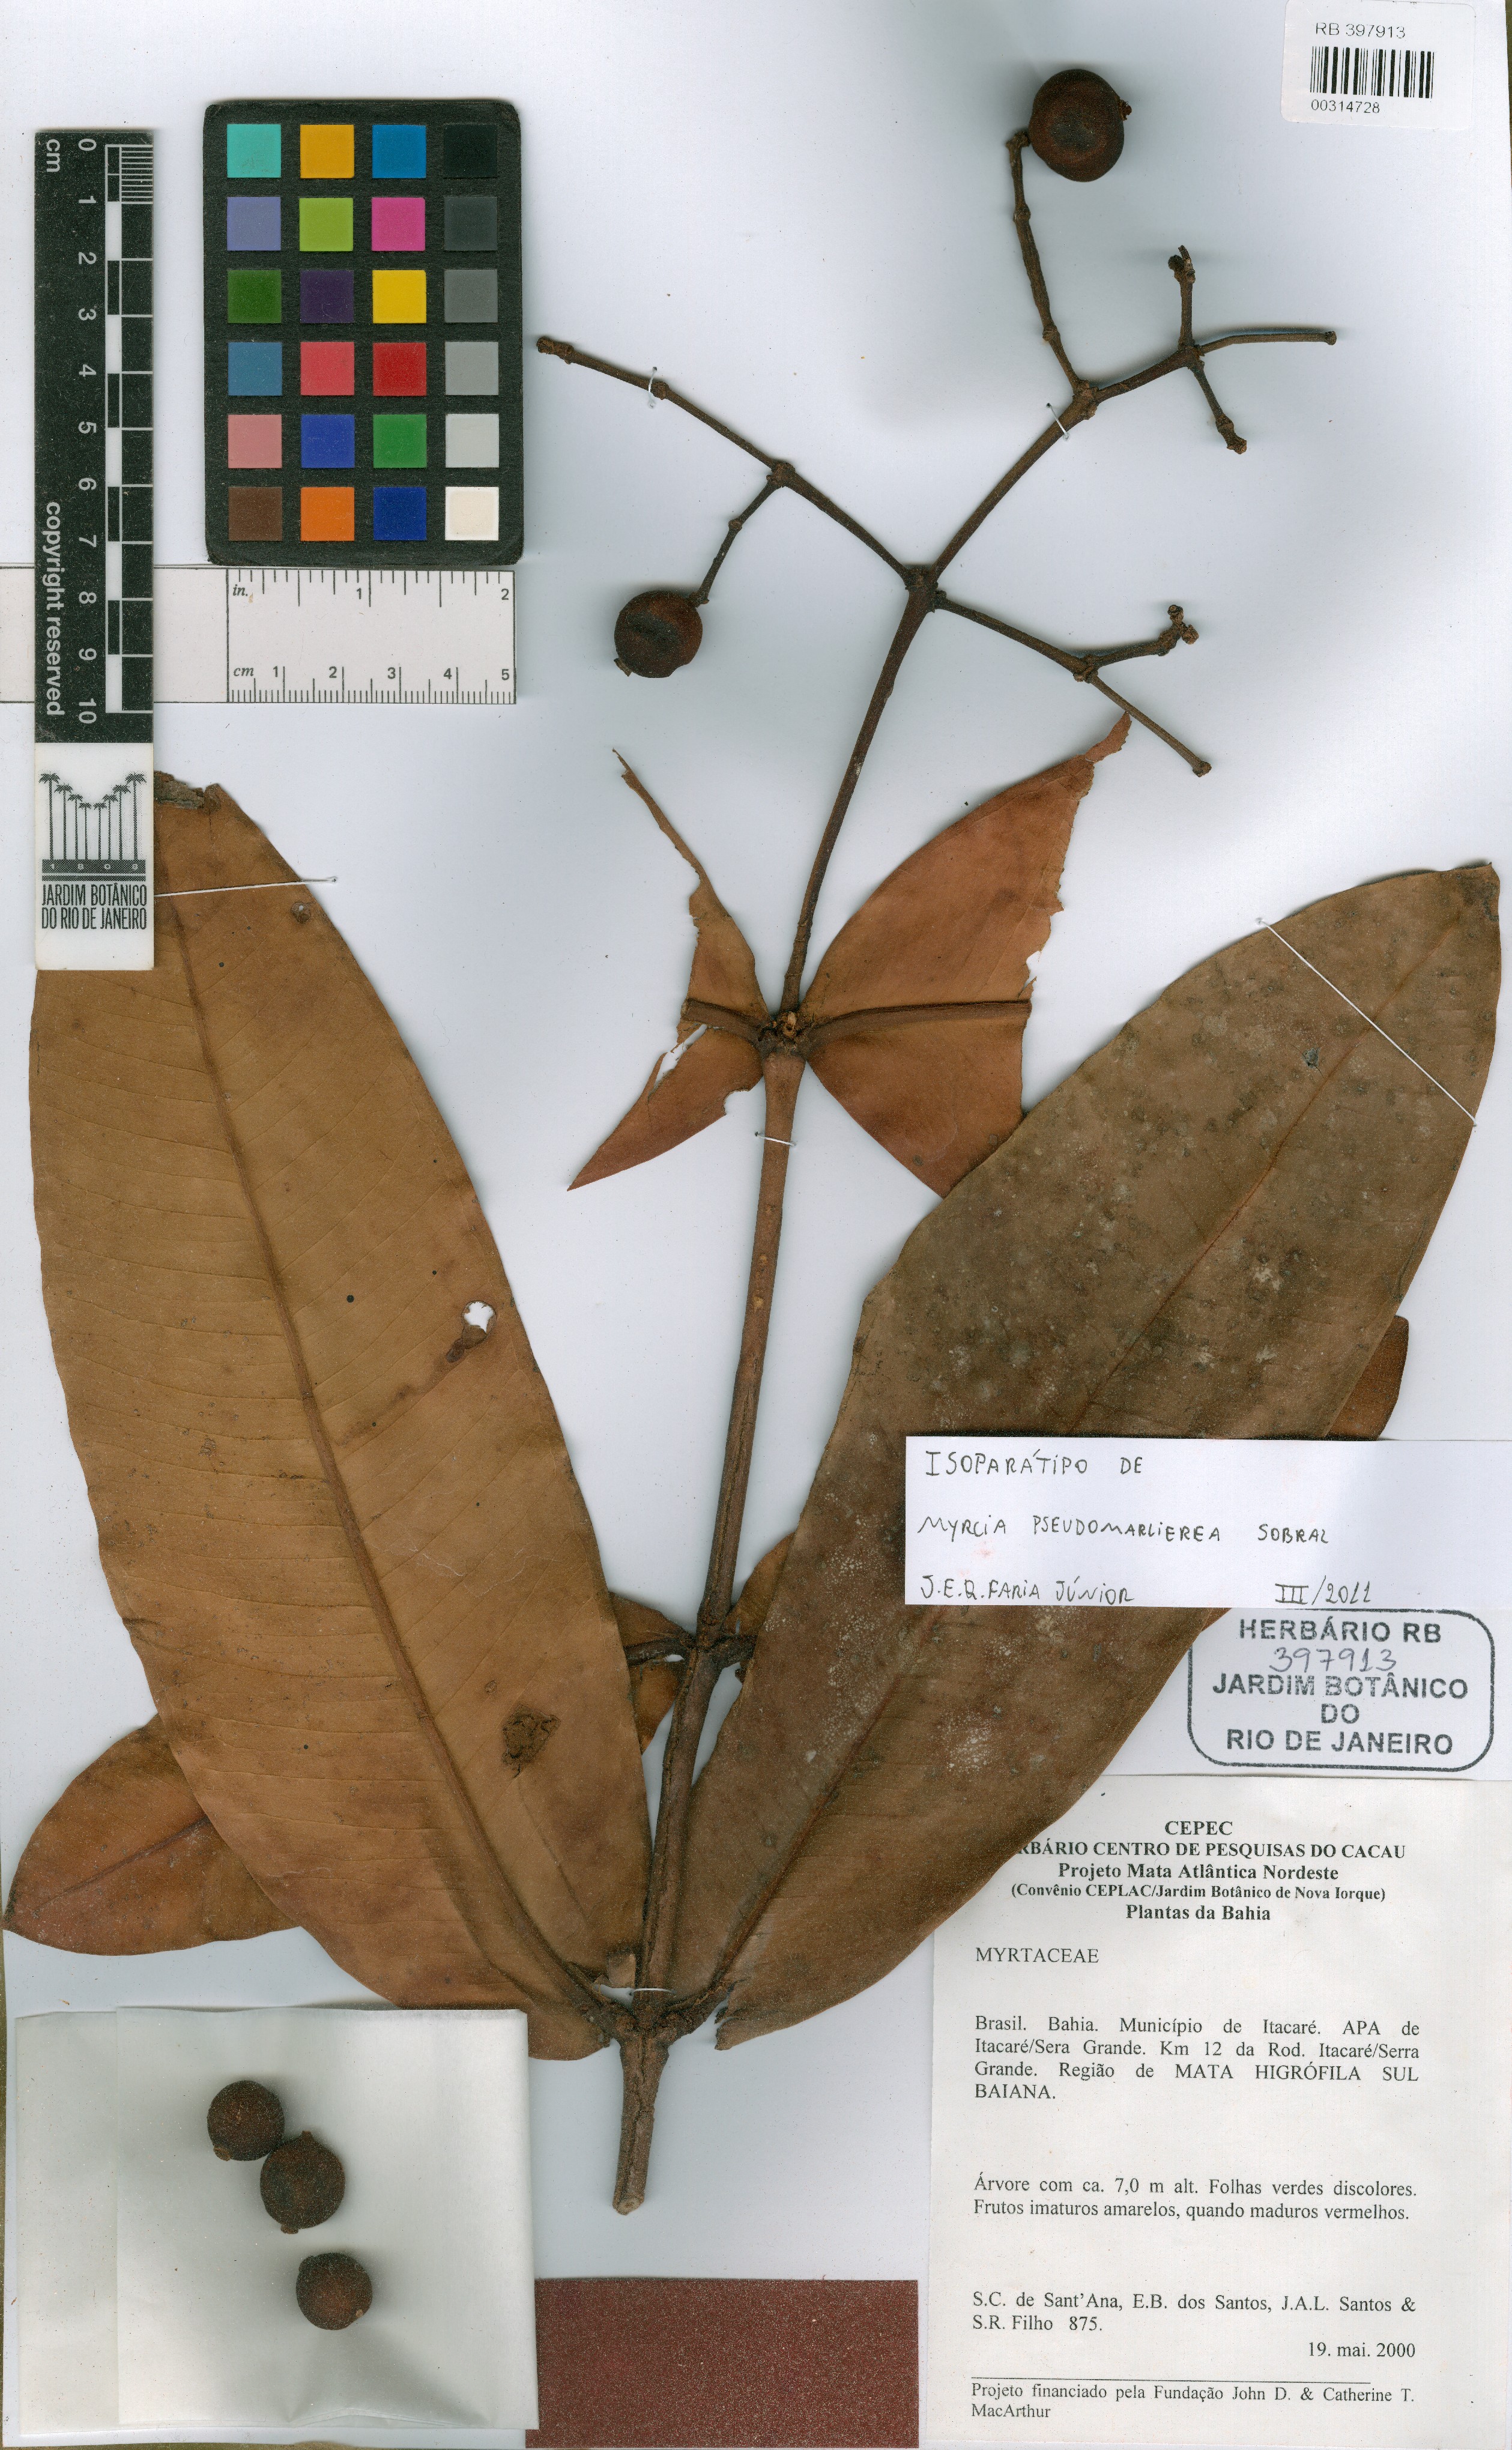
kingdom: Plantae
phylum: Tracheophyta
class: Magnoliopsida
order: Myrtales
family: Myrtaceae
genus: Myrcia
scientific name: Myrcia pseudomarlierea
